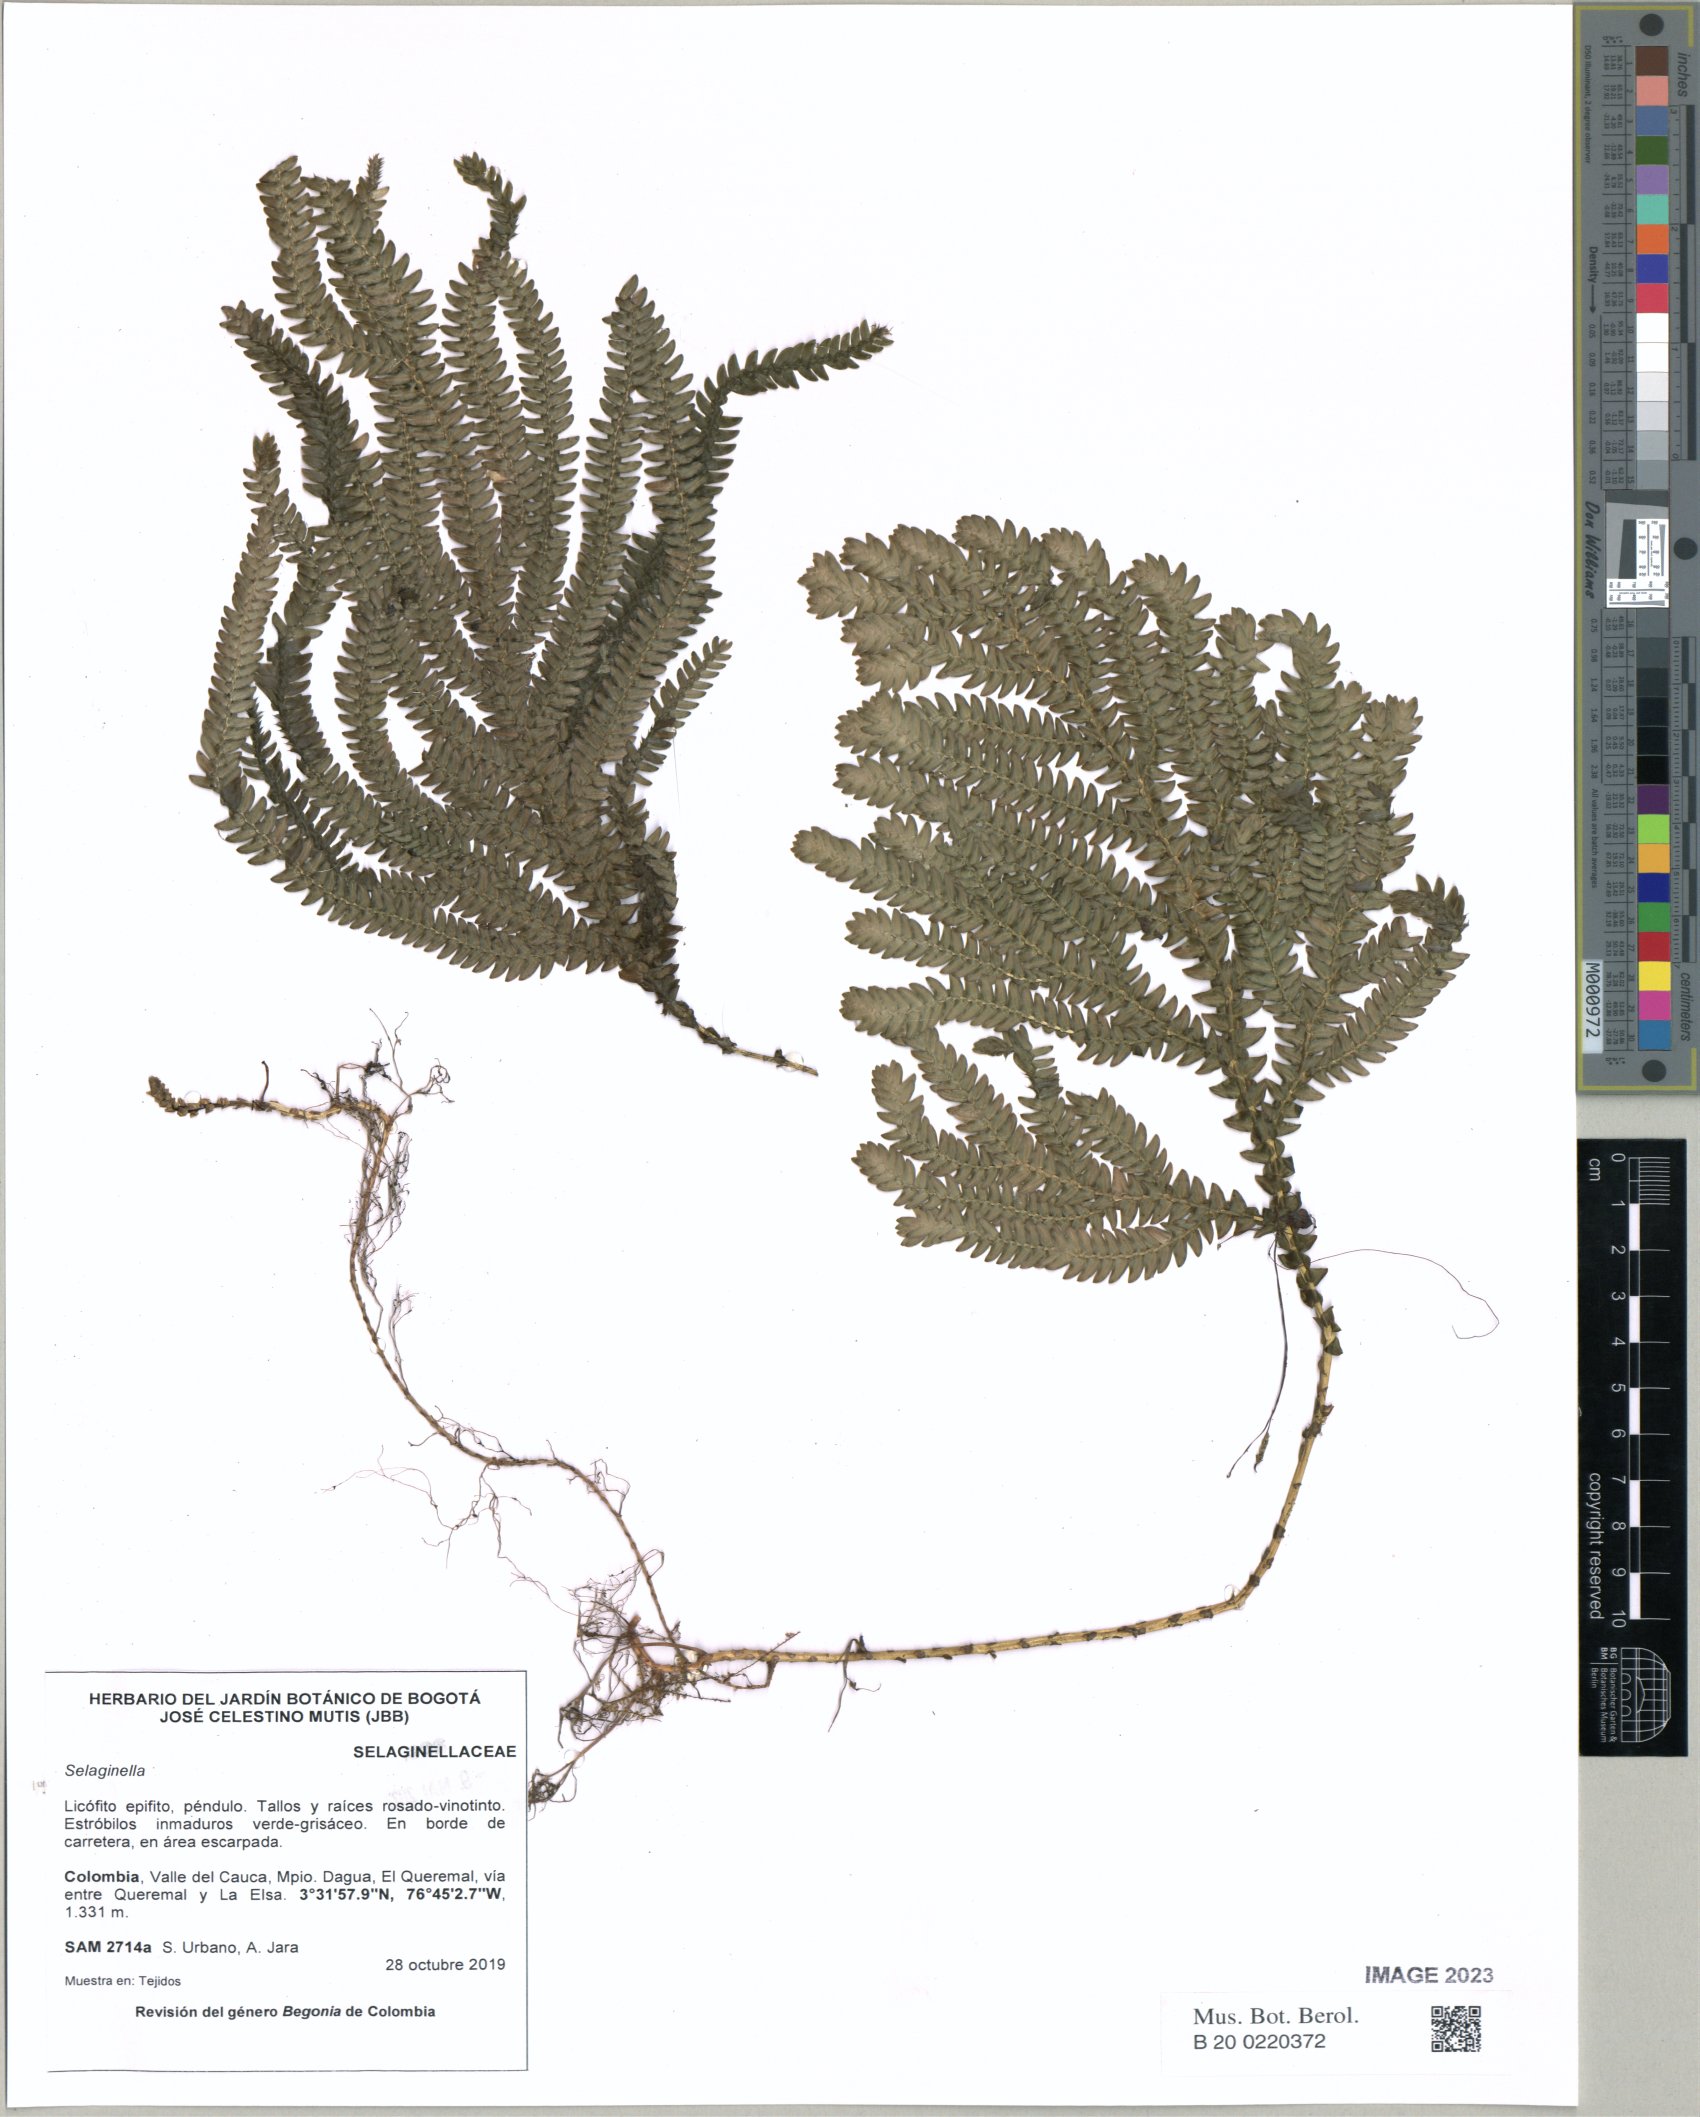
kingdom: Plantae
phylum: Tracheophyta
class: Lycopodiopsida
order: Selaginellales
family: Selaginellaceae
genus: Selaginella
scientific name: Selaginella
